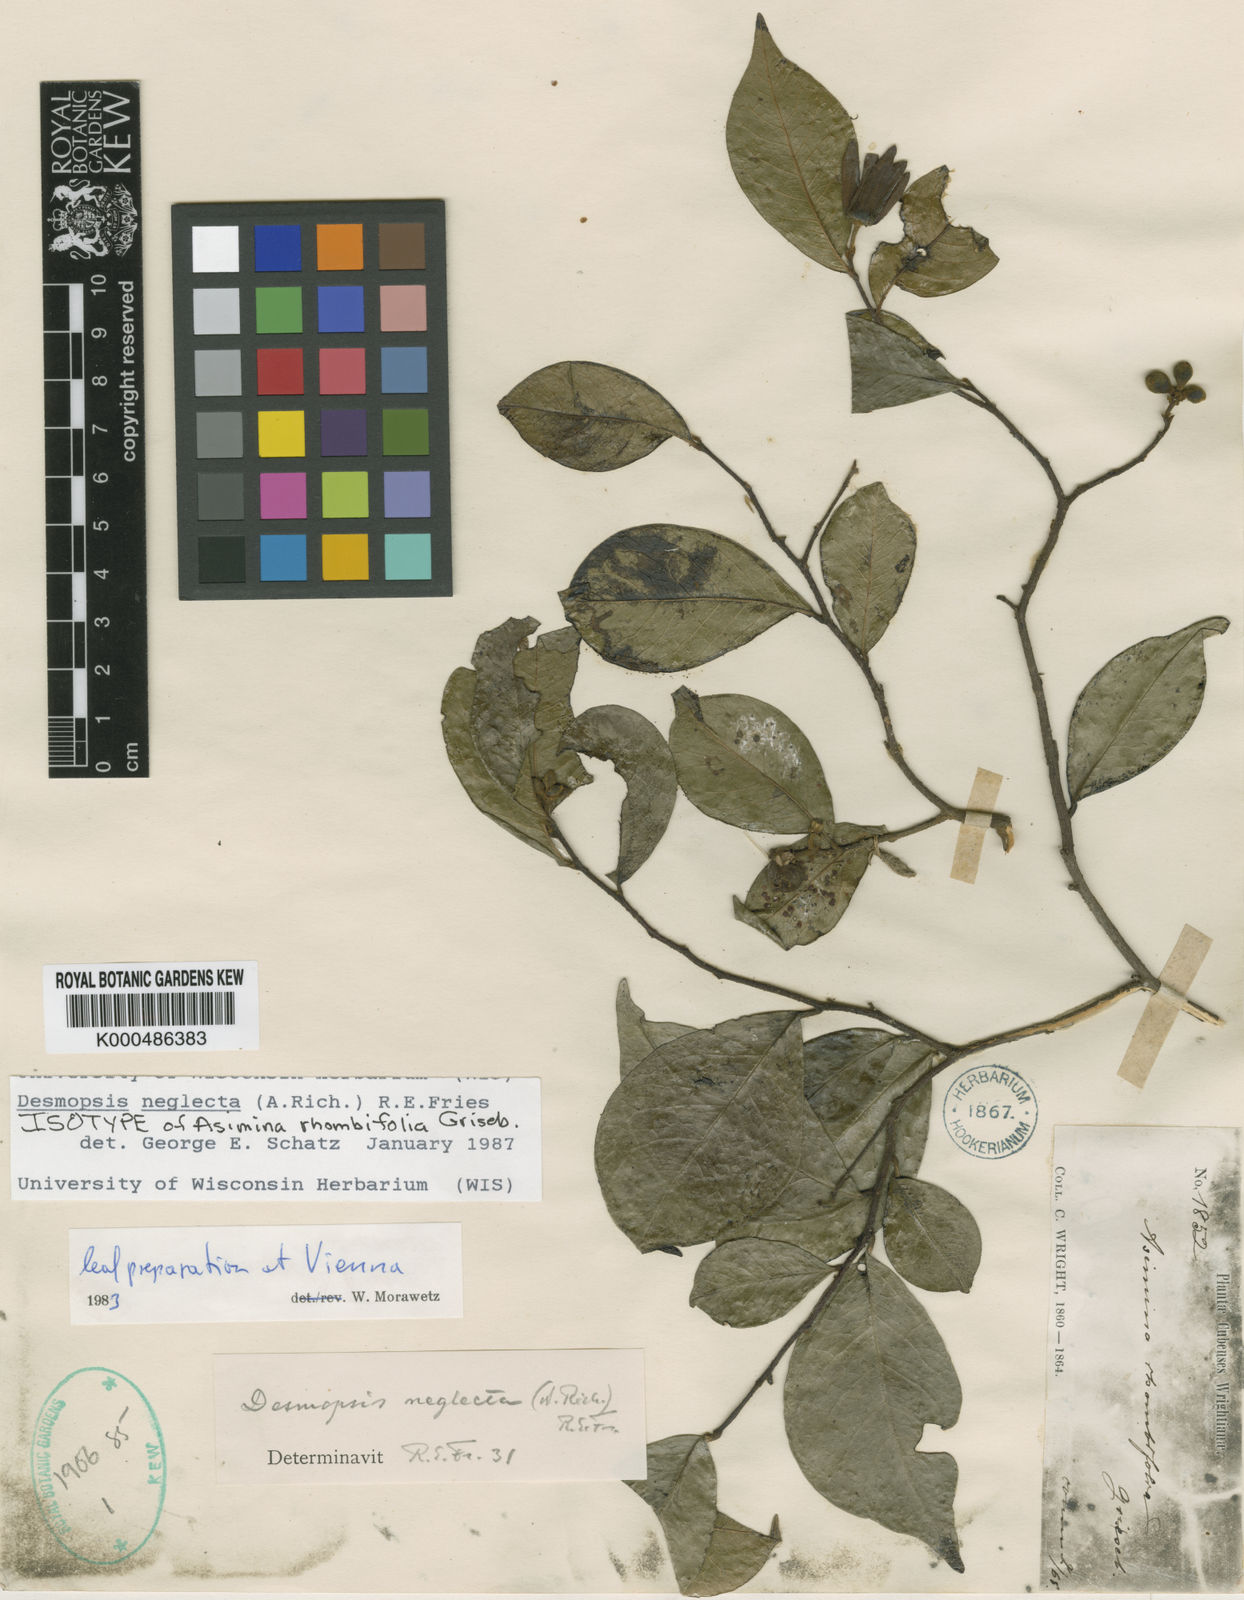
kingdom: Plantae
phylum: Tracheophyta
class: Magnoliopsida
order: Magnoliales
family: Annonaceae
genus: Desmopsis
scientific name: Desmopsis neglecta
